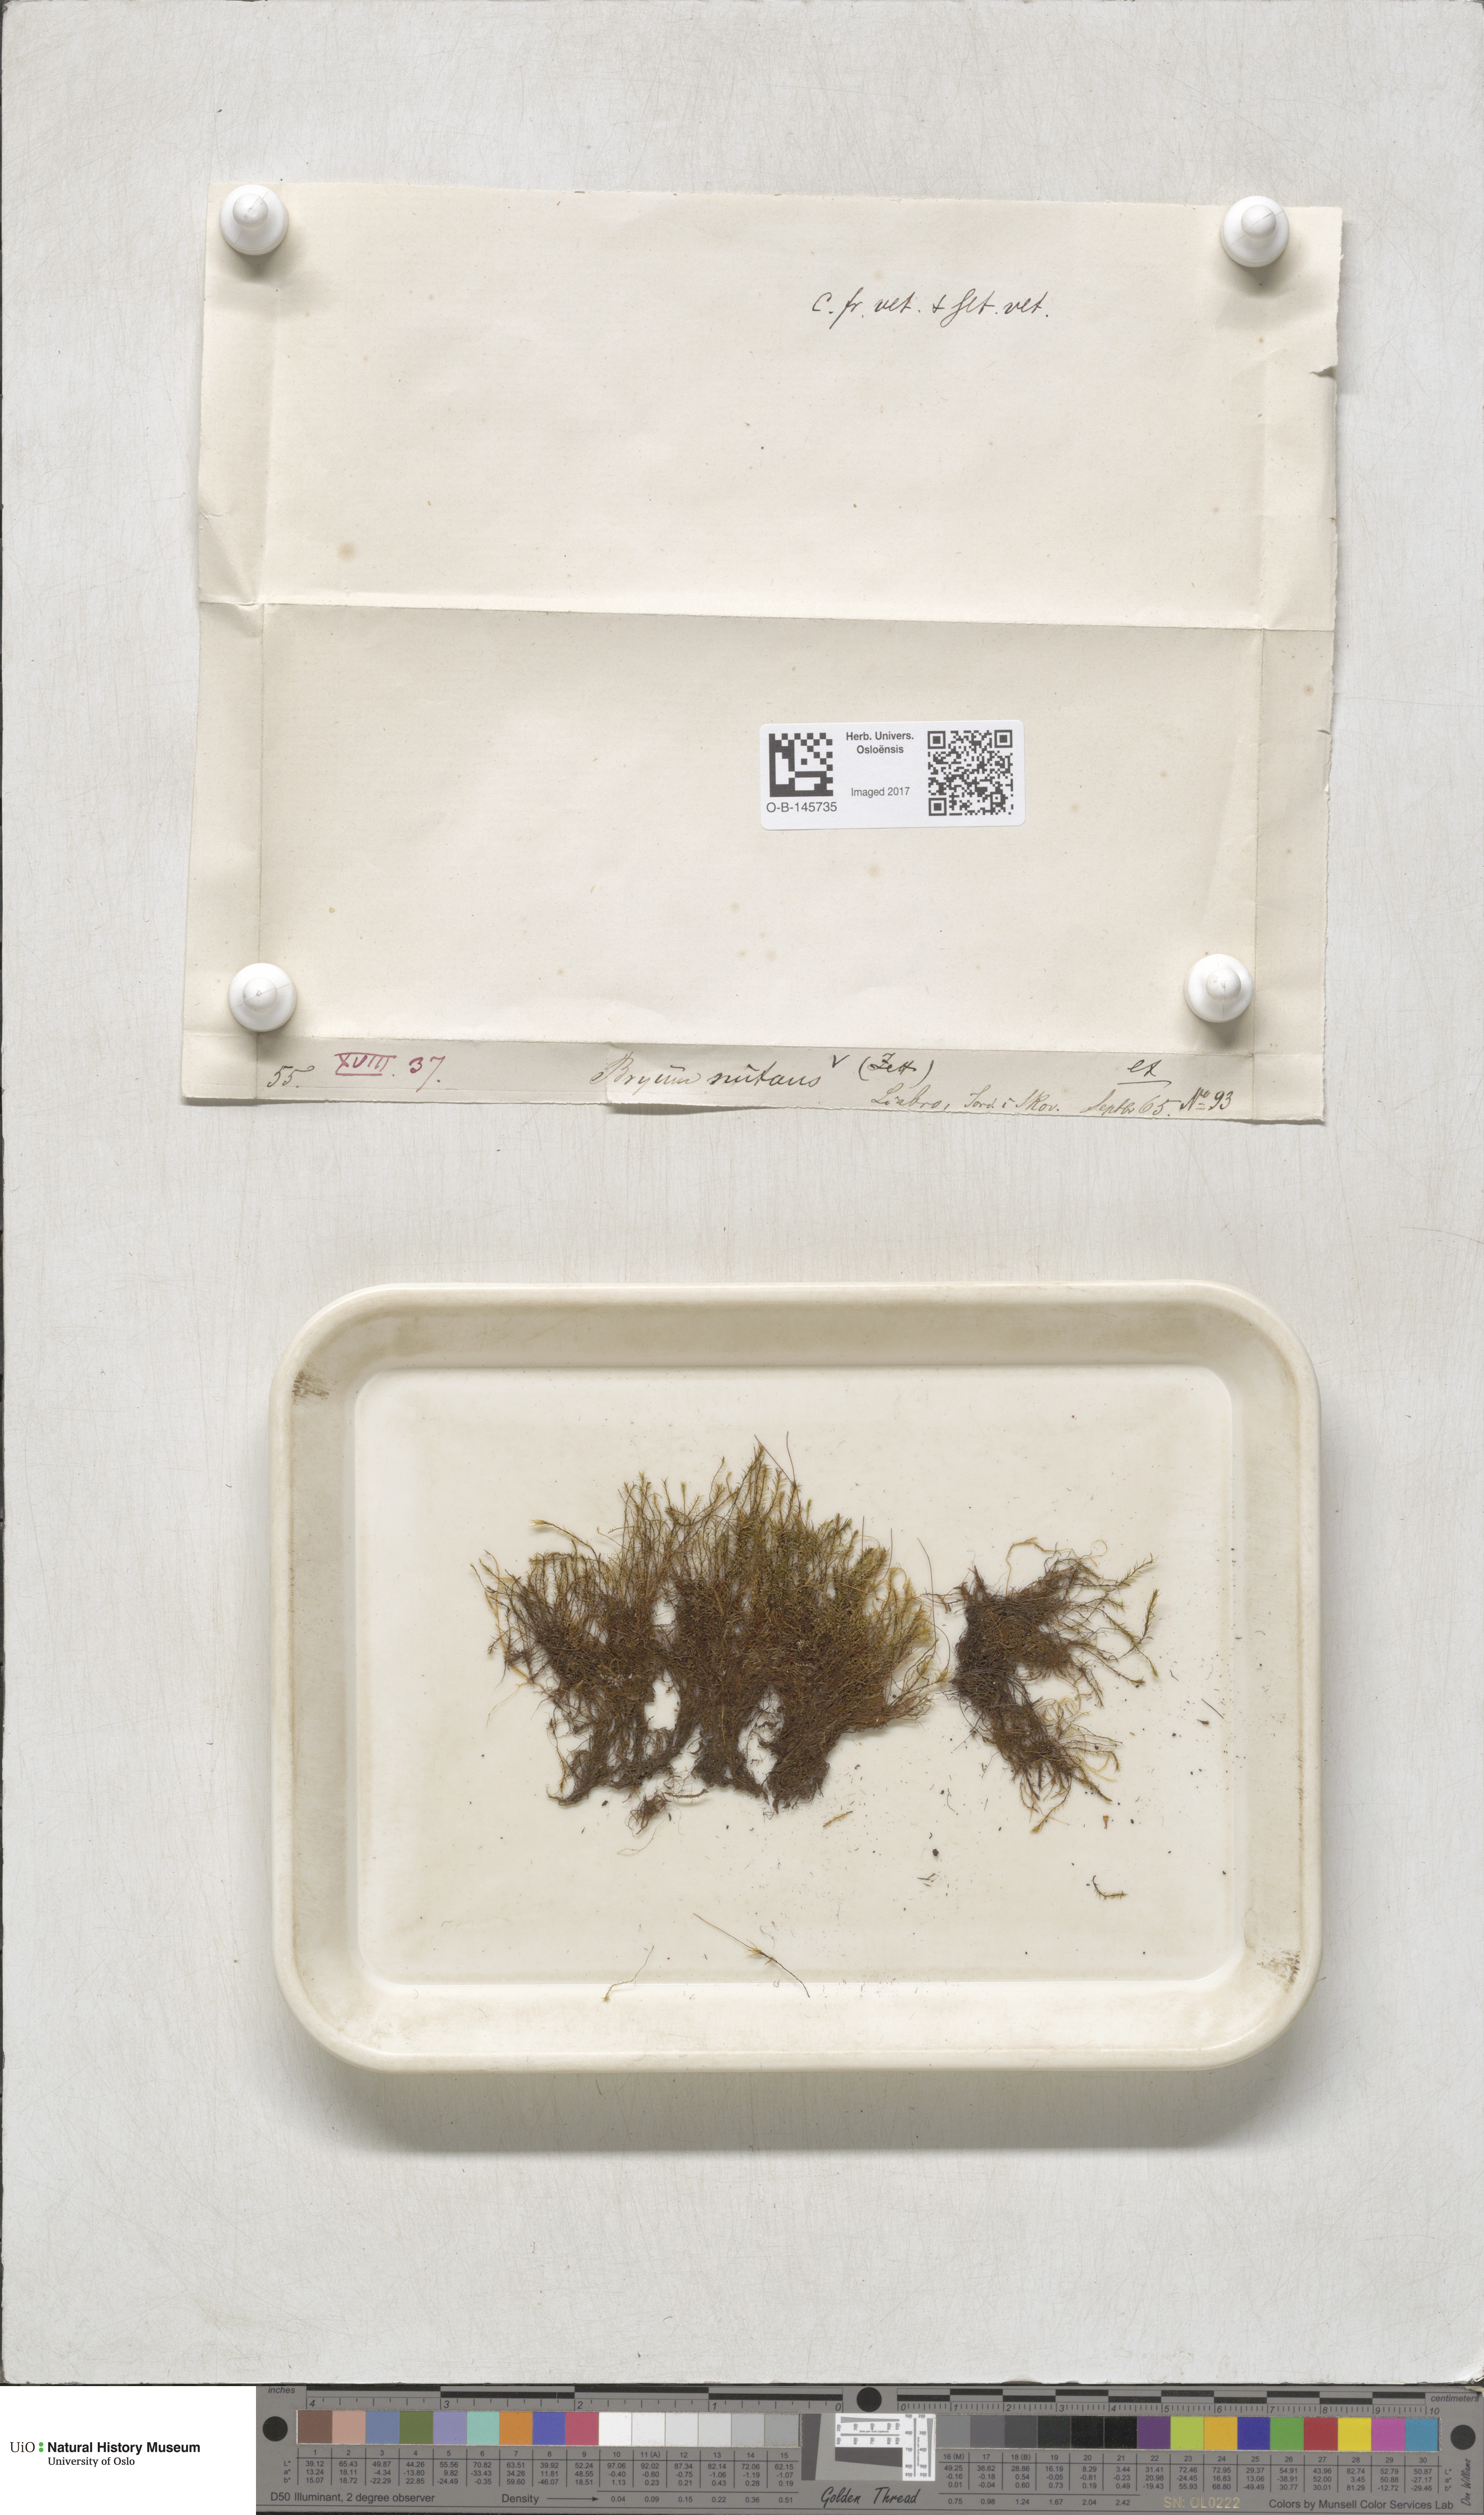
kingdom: Plantae
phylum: Bryophyta
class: Bryopsida
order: Bryales
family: Mniaceae
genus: Pohlia
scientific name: Pohlia nutans
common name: Nodding thread-moss
